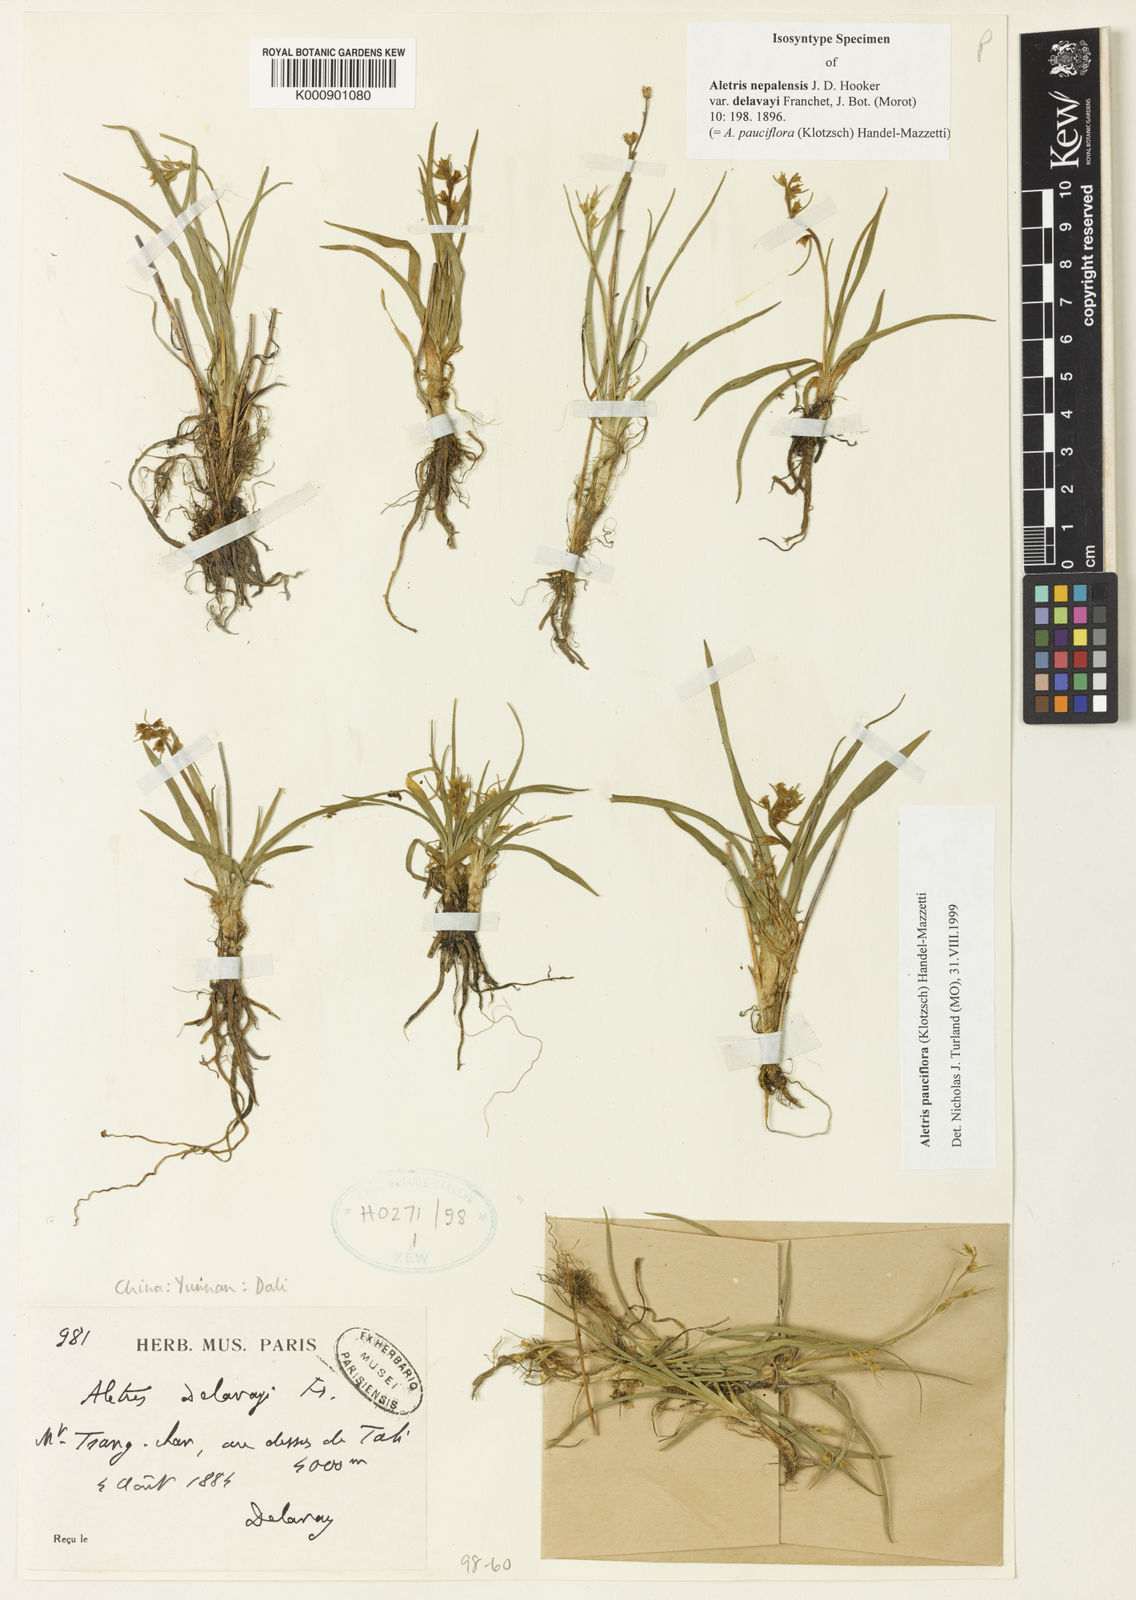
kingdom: Plantae
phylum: Tracheophyta
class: Liliopsida
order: Dioscoreales
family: Nartheciaceae
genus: Aletris
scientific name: Aletris
